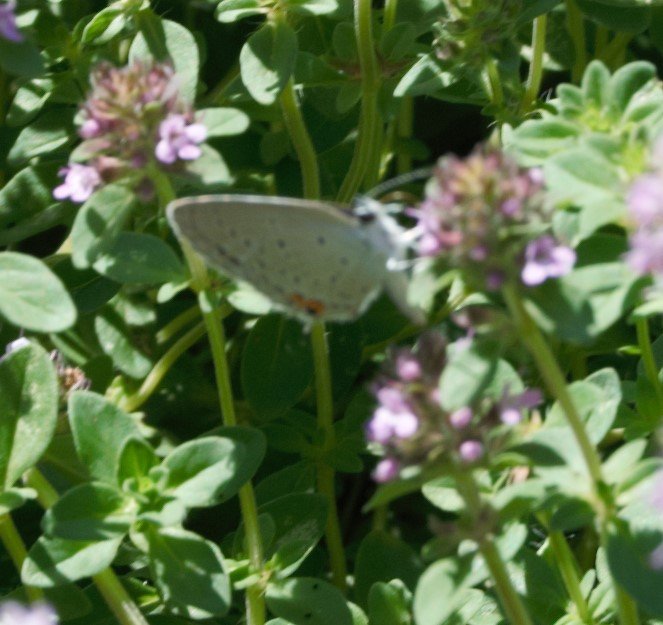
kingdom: Animalia
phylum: Arthropoda
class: Insecta
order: Lepidoptera
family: Lycaenidae
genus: Elkalyce
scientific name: Elkalyce comyntas
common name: Eastern Tailed-Blue
